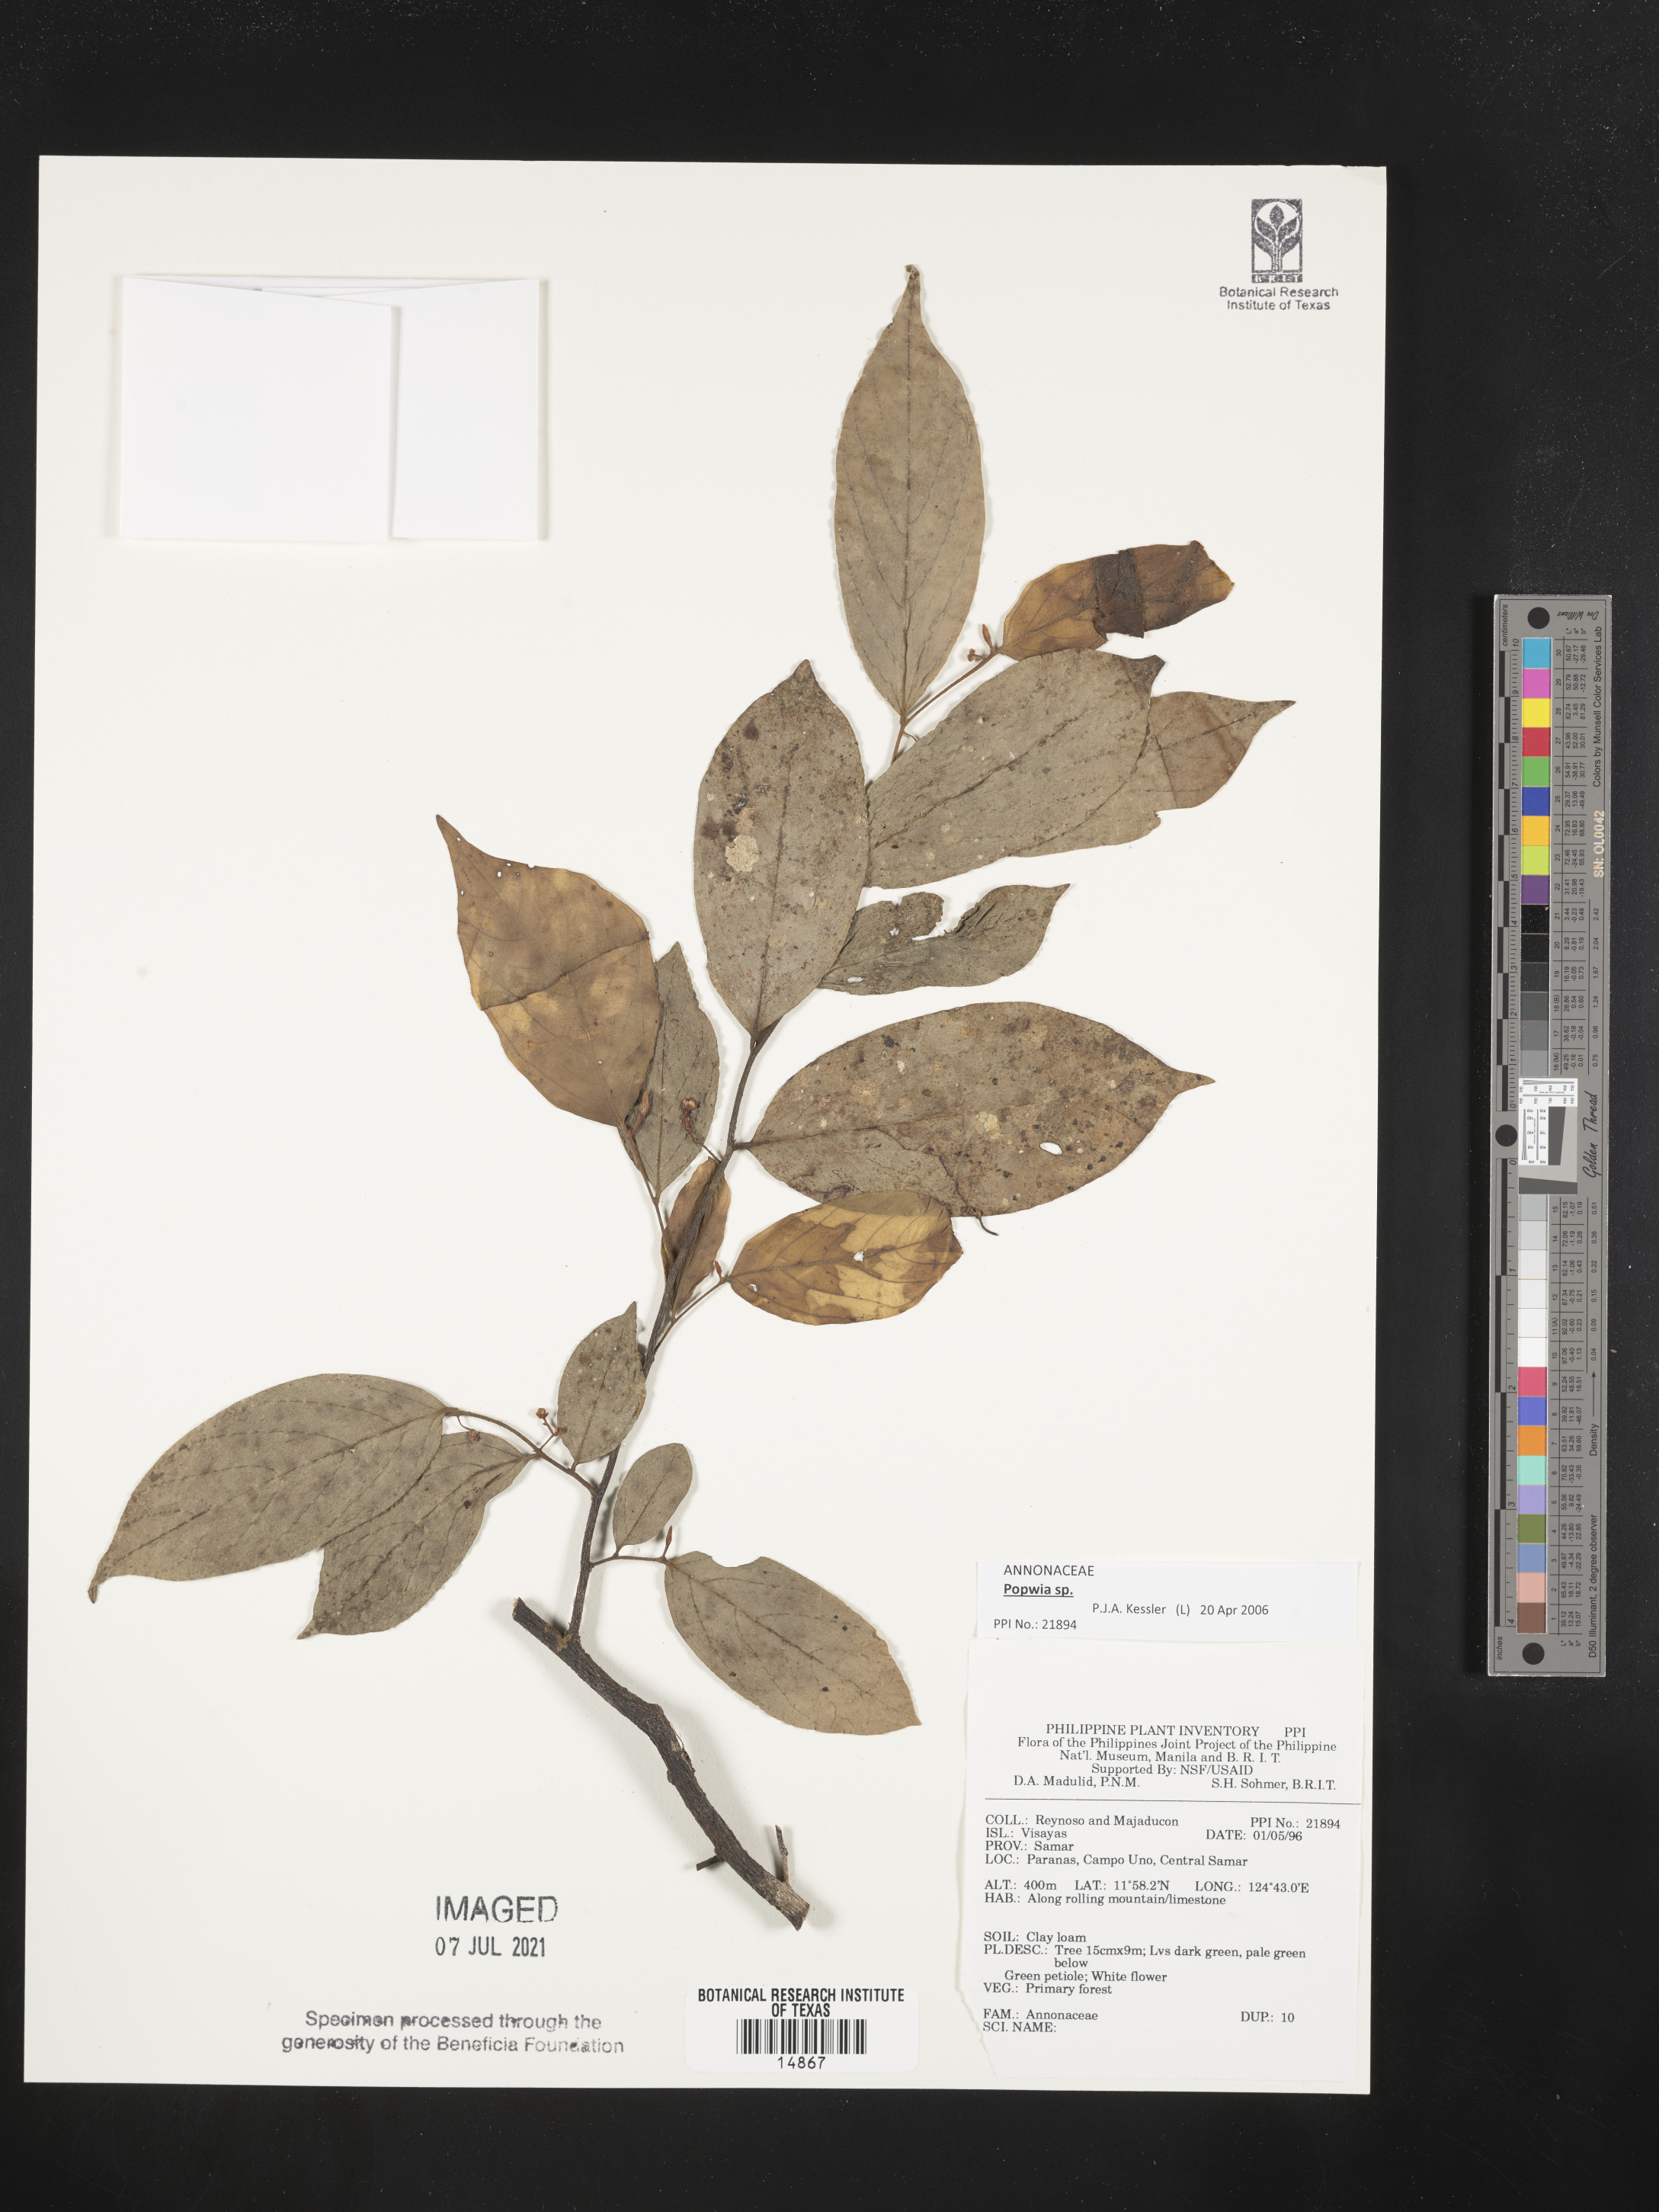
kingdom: Plantae
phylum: Tracheophyta
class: Magnoliopsida
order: Magnoliales
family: Annonaceae
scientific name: Annonaceae
